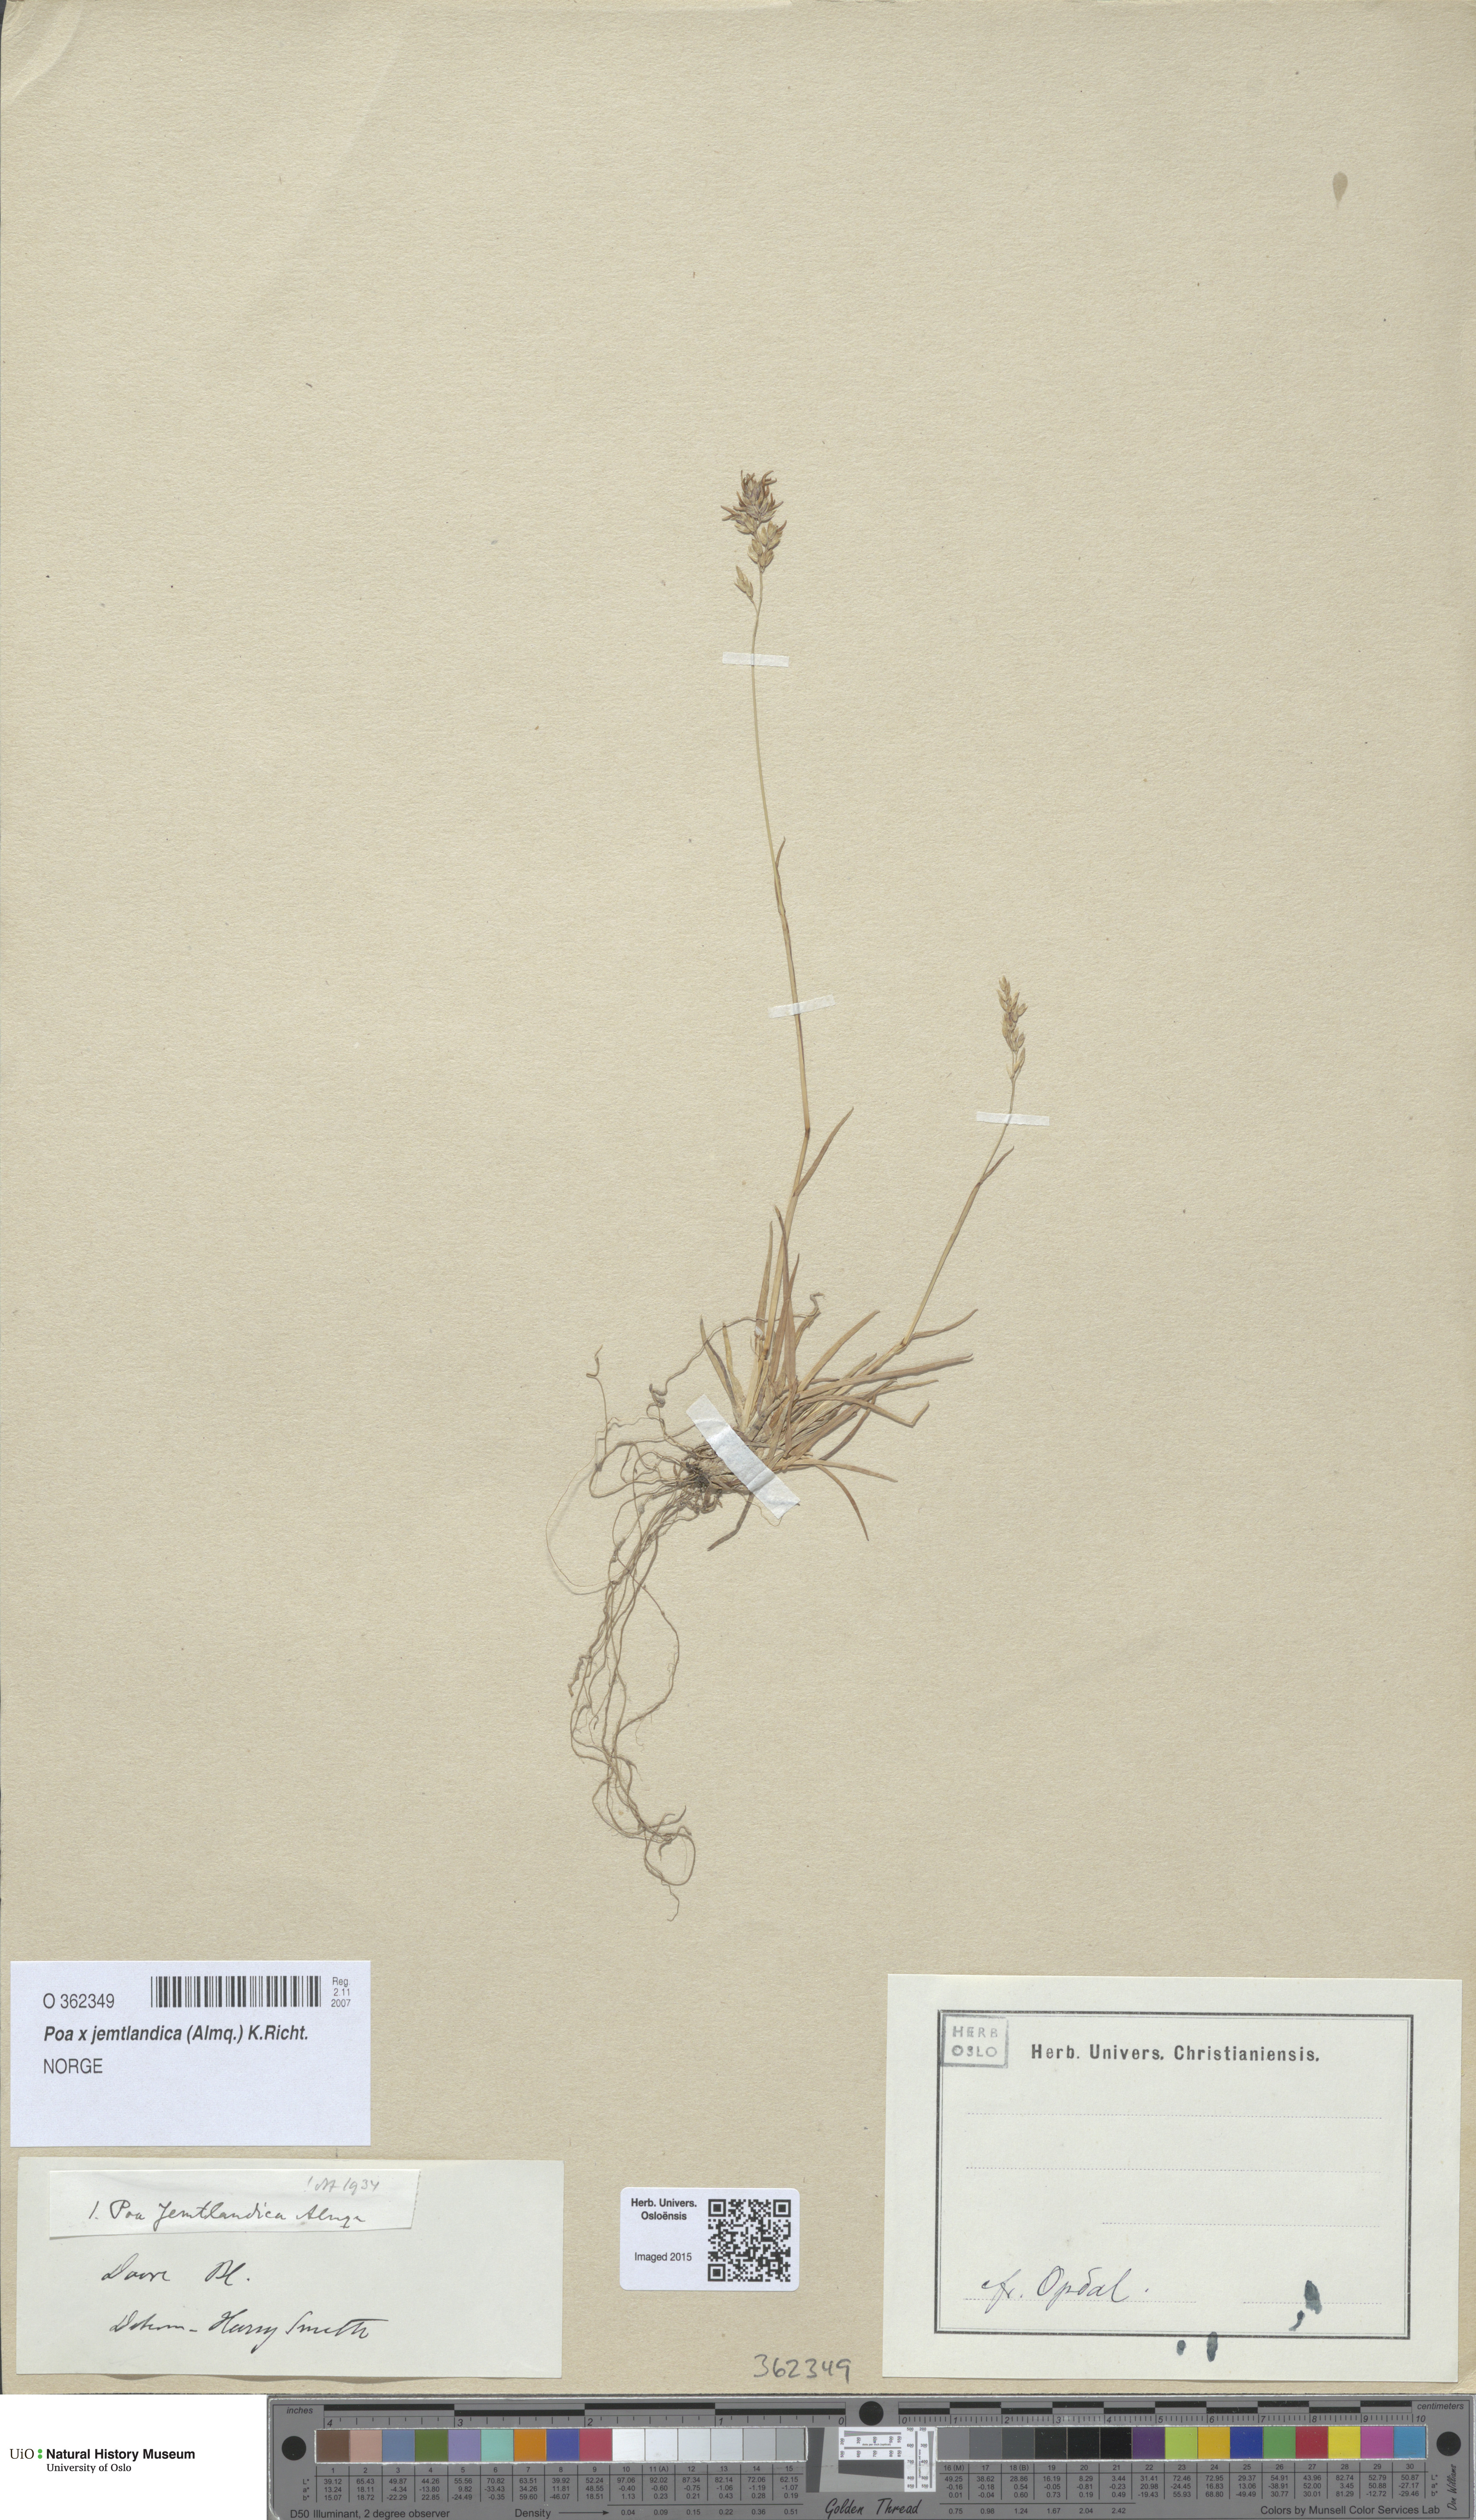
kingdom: Plantae
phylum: Tracheophyta
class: Liliopsida
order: Poales
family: Poaceae
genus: Poa
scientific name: Poa jemtlandica
